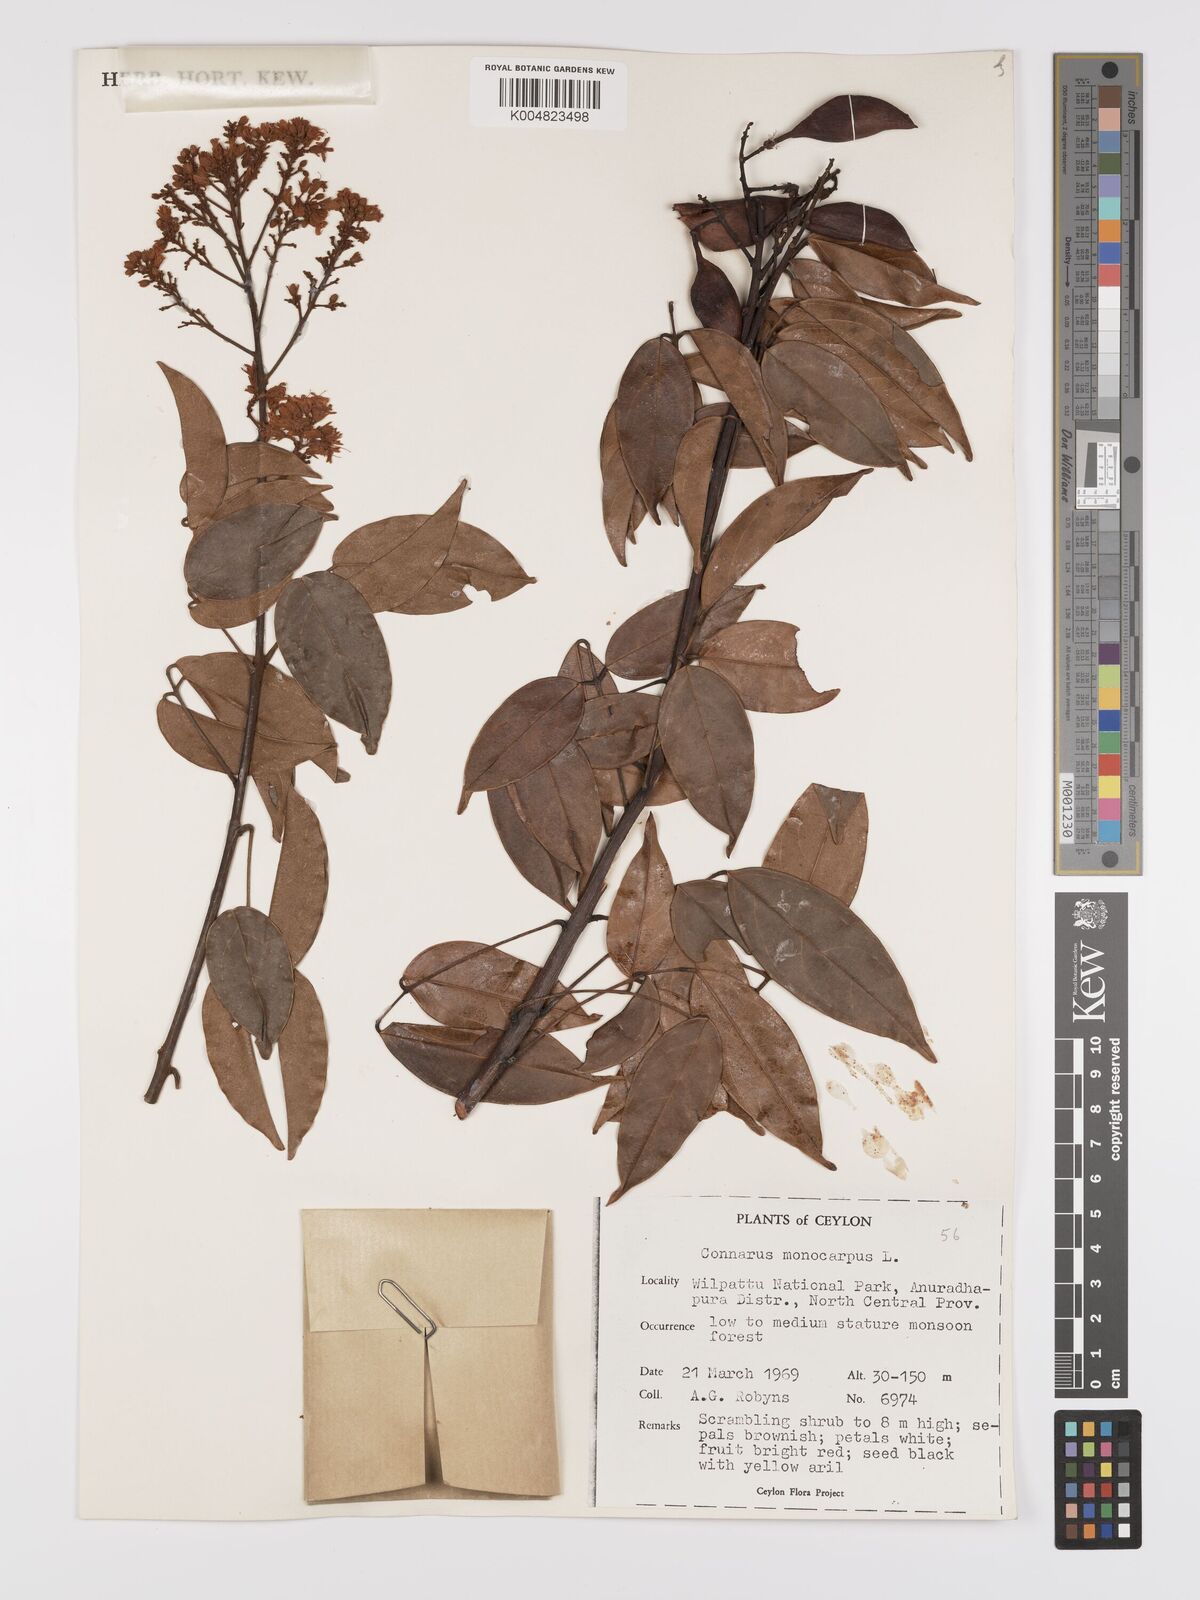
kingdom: Plantae
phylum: Tracheophyta
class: Magnoliopsida
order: Oxalidales
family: Connaraceae
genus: Connarus
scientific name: Connarus semidecandrus
